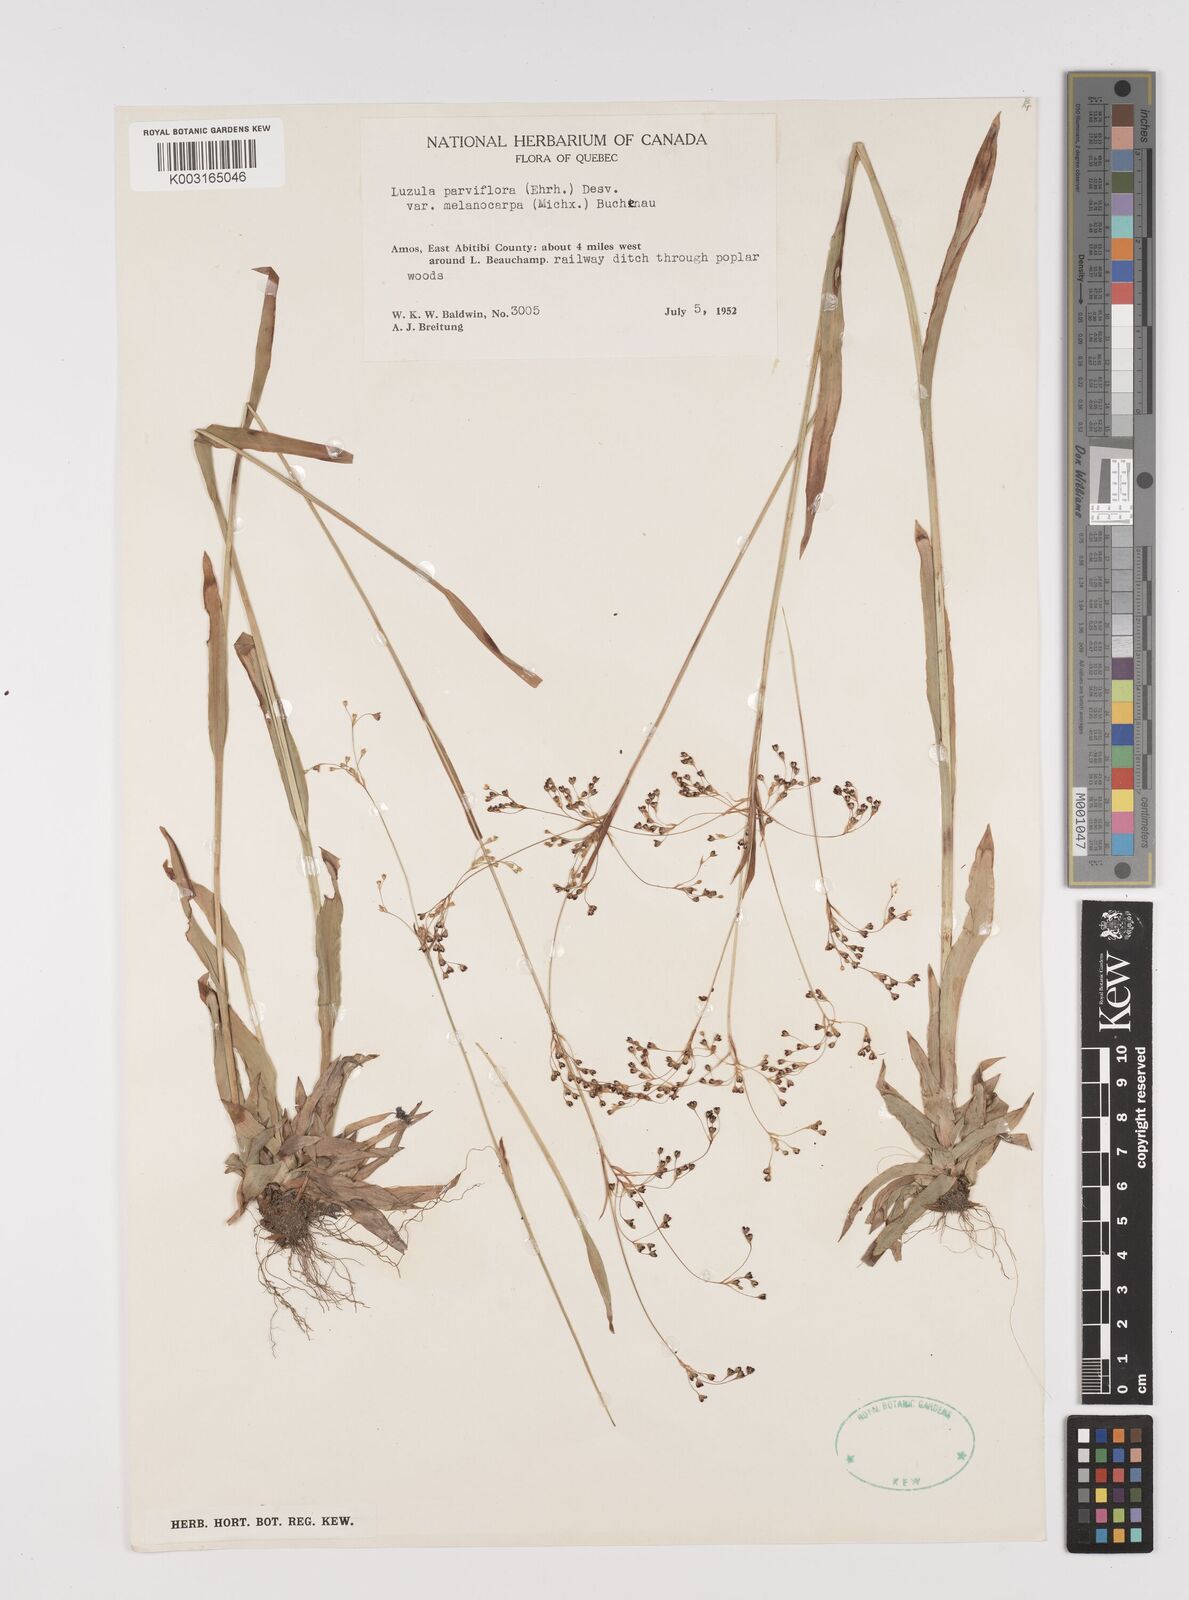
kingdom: Plantae
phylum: Tracheophyta
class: Liliopsida
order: Poales
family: Juncaceae
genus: Luzula
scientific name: Luzula parviflora
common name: Millet woodrush
